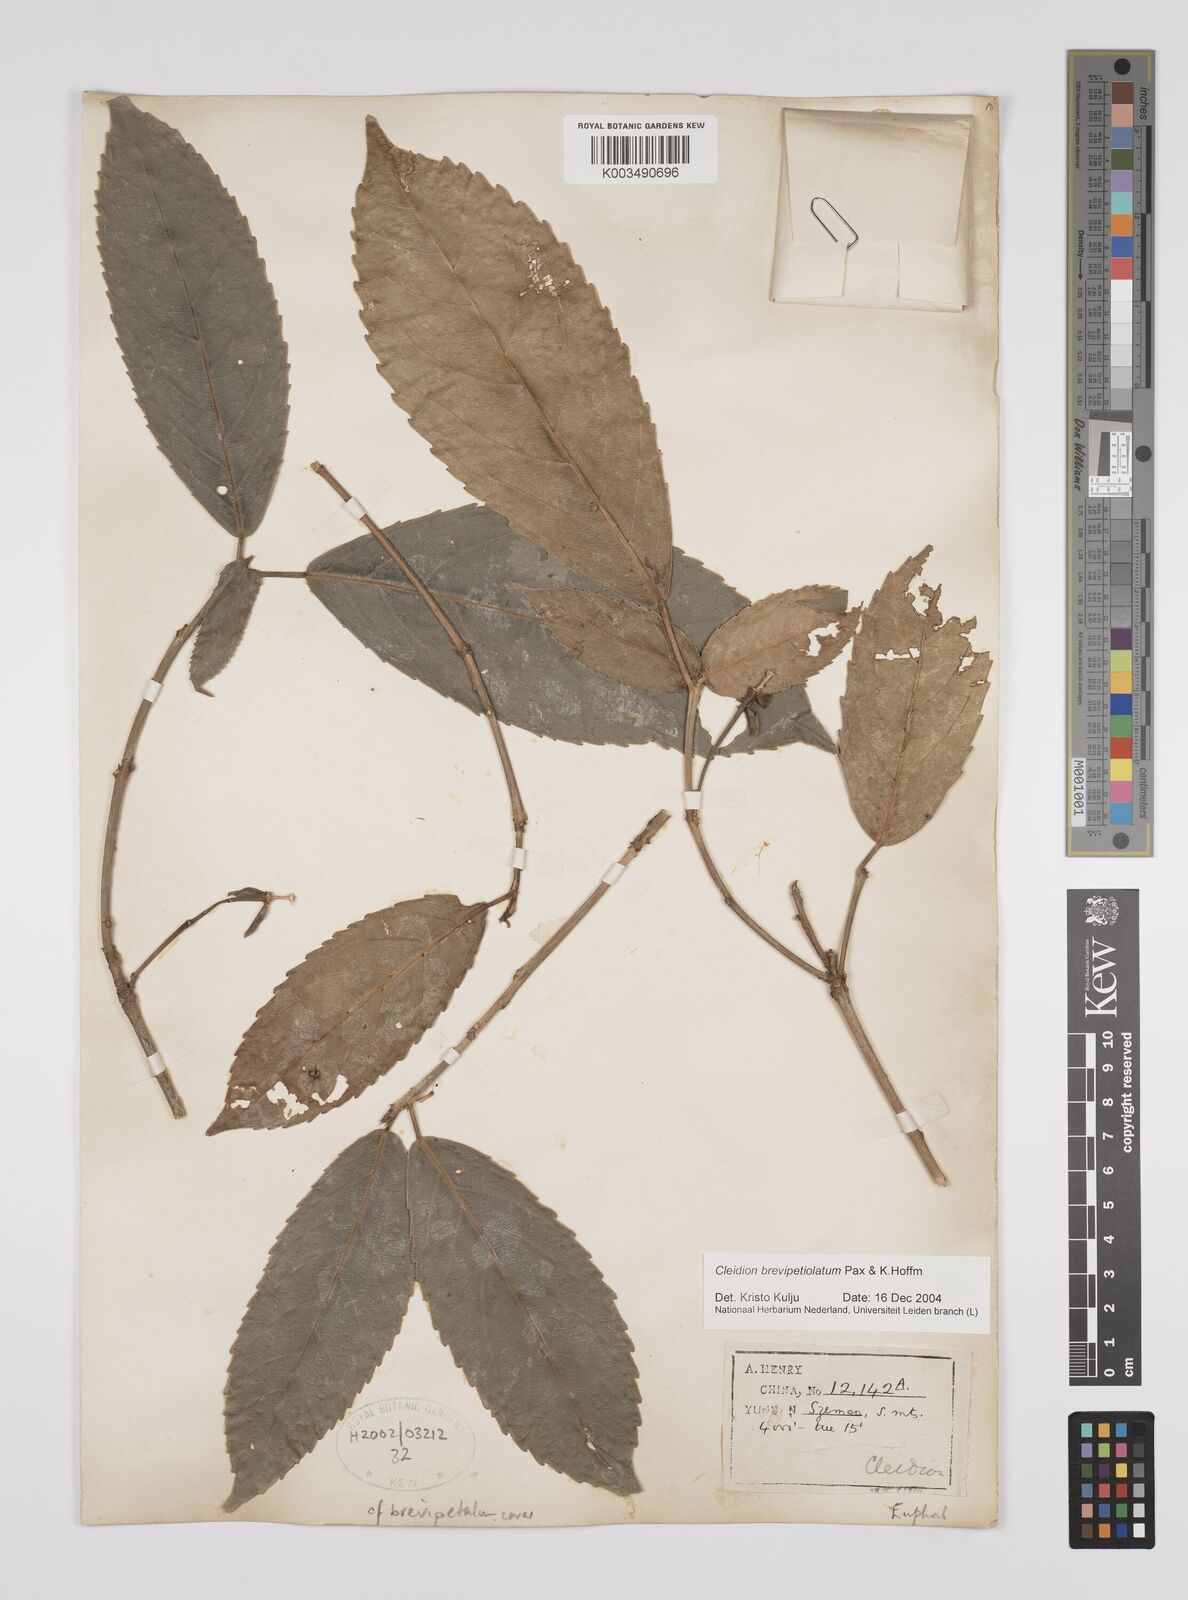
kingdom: Plantae
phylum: Tracheophyta
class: Magnoliopsida
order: Malpighiales
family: Euphorbiaceae
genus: Cleidion
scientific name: Cleidion brevipetiolatum
